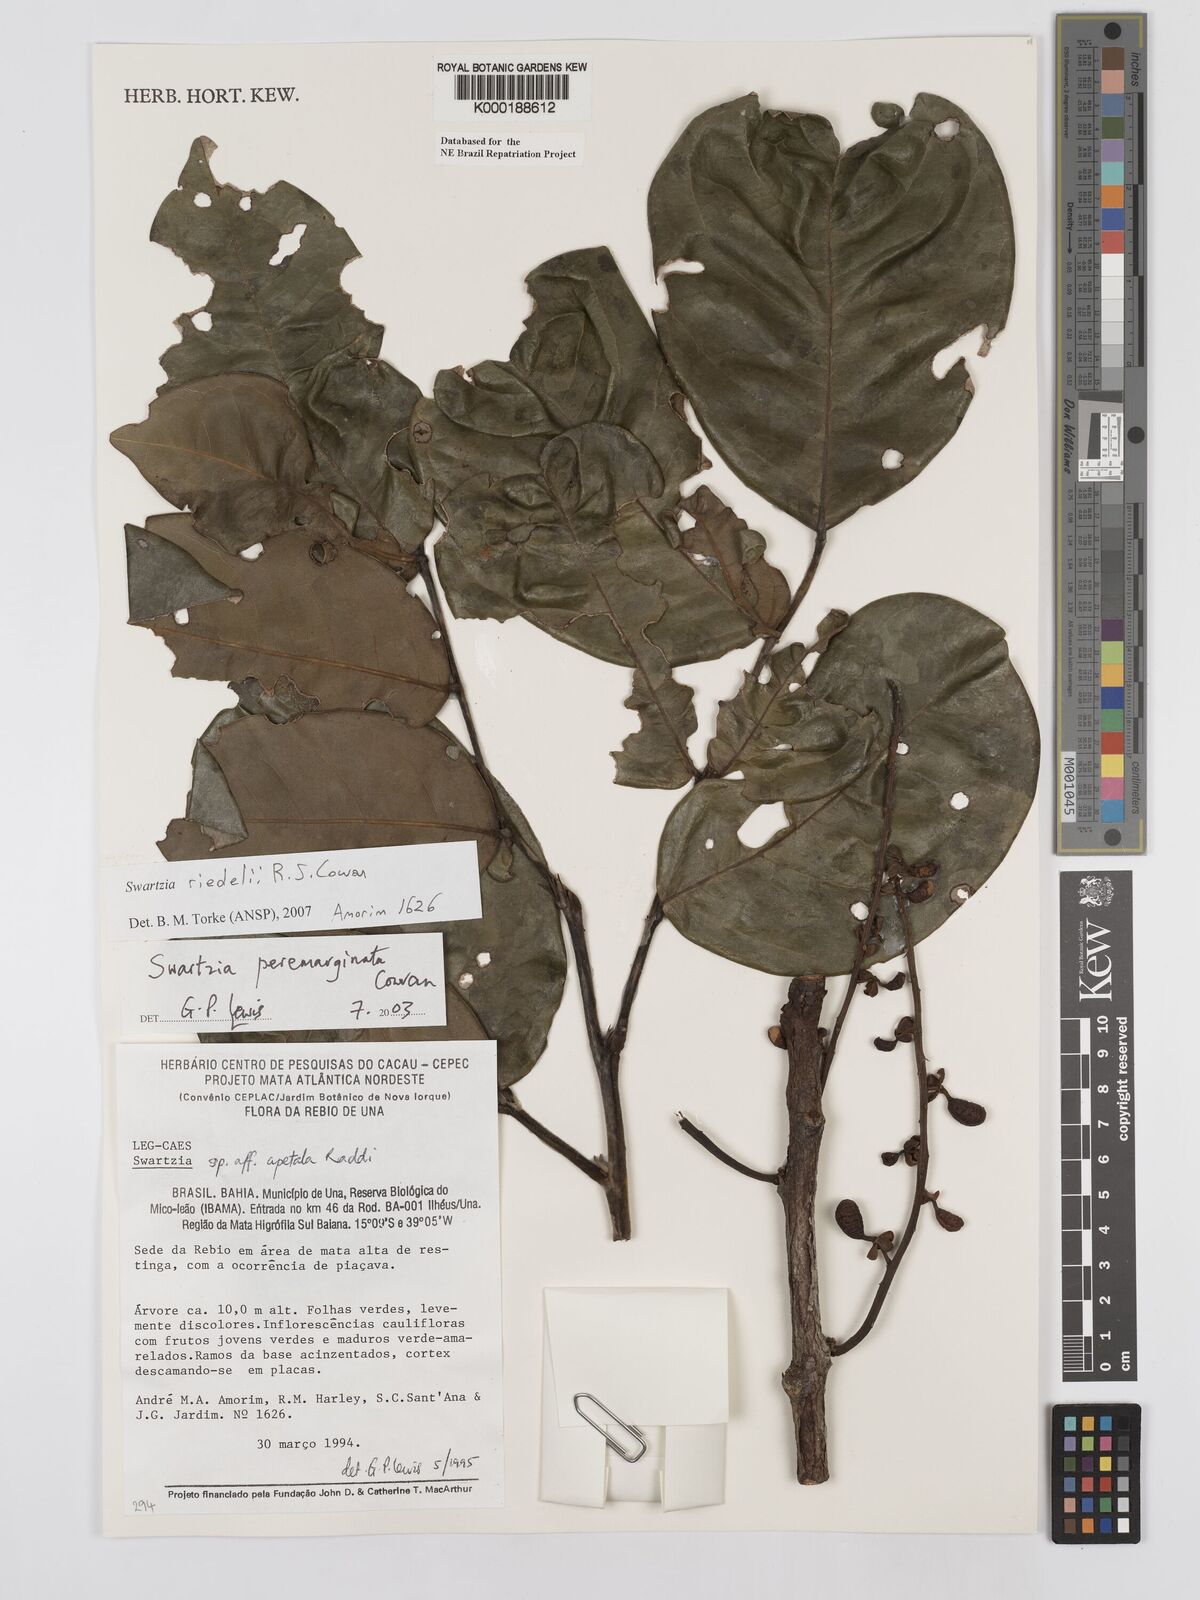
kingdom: Plantae
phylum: Tracheophyta
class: Magnoliopsida
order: Fabales
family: Fabaceae
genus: Swartzia
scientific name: Swartzia riedelii
